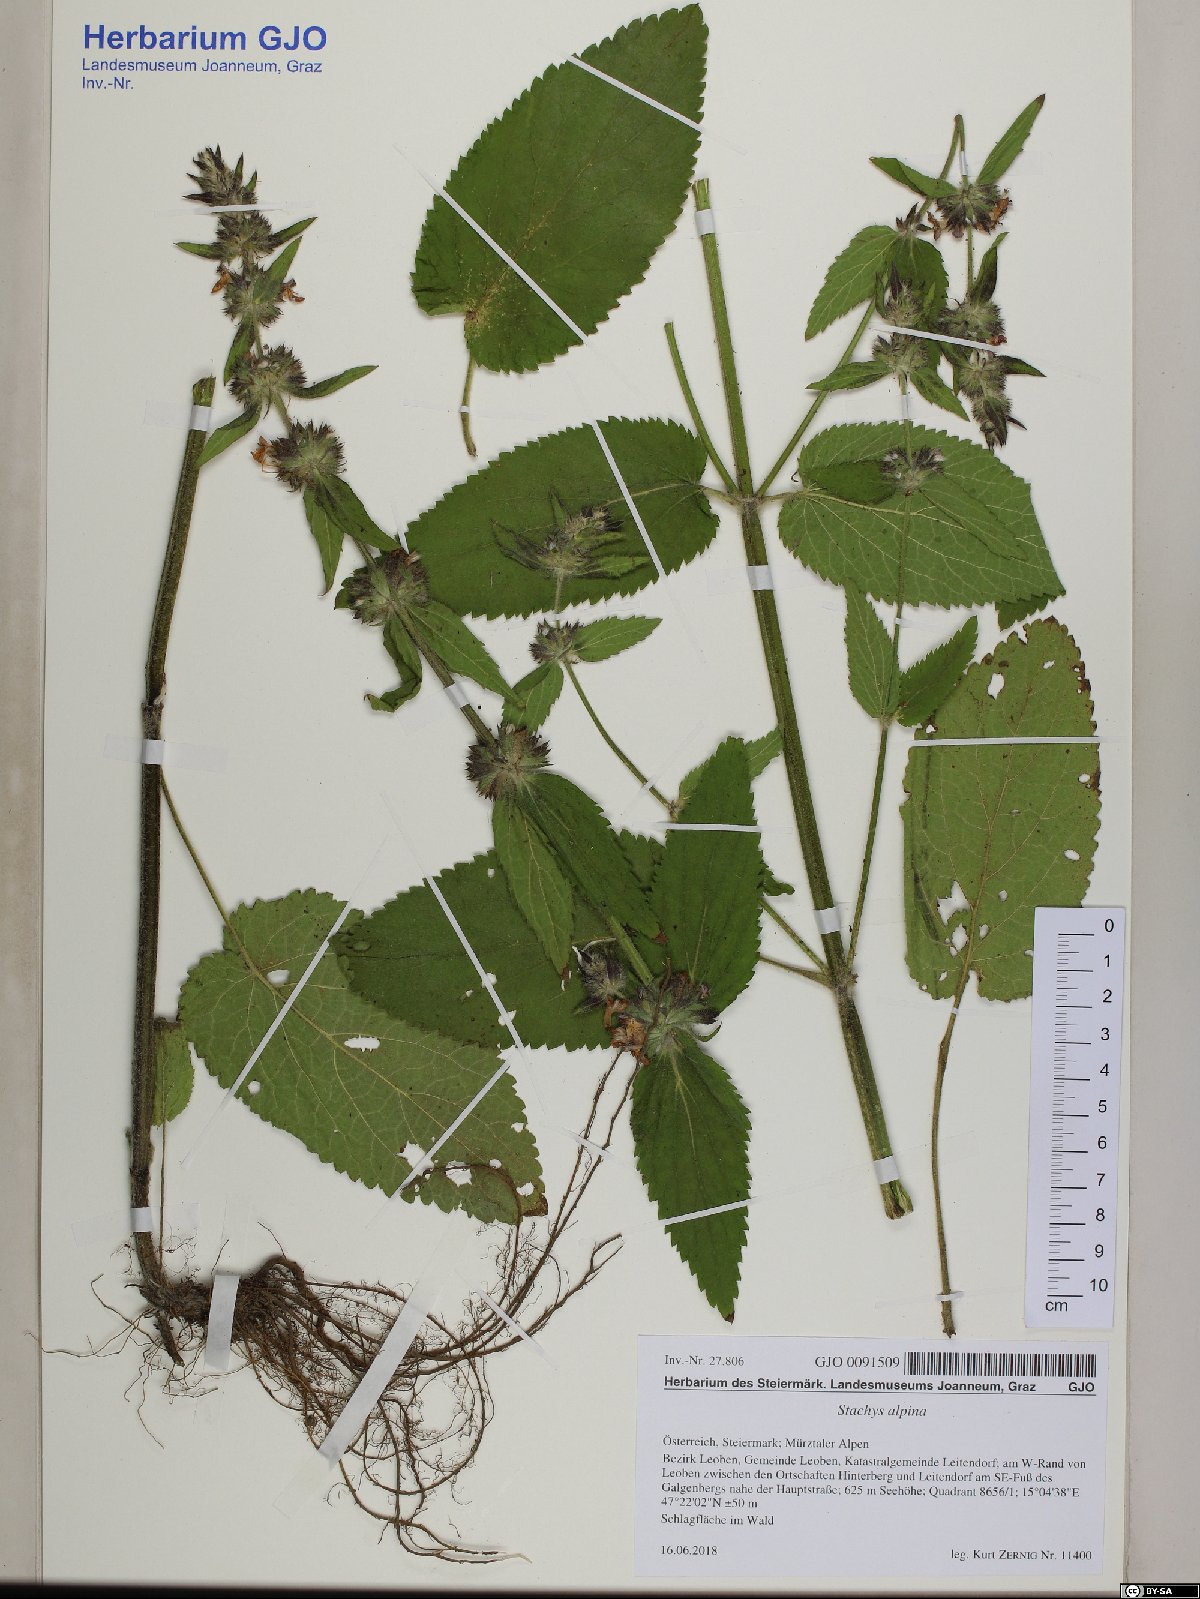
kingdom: Plantae
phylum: Tracheophyta
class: Magnoliopsida
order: Lamiales
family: Lamiaceae
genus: Stachys
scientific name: Stachys alpina
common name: Limestone woundwort
